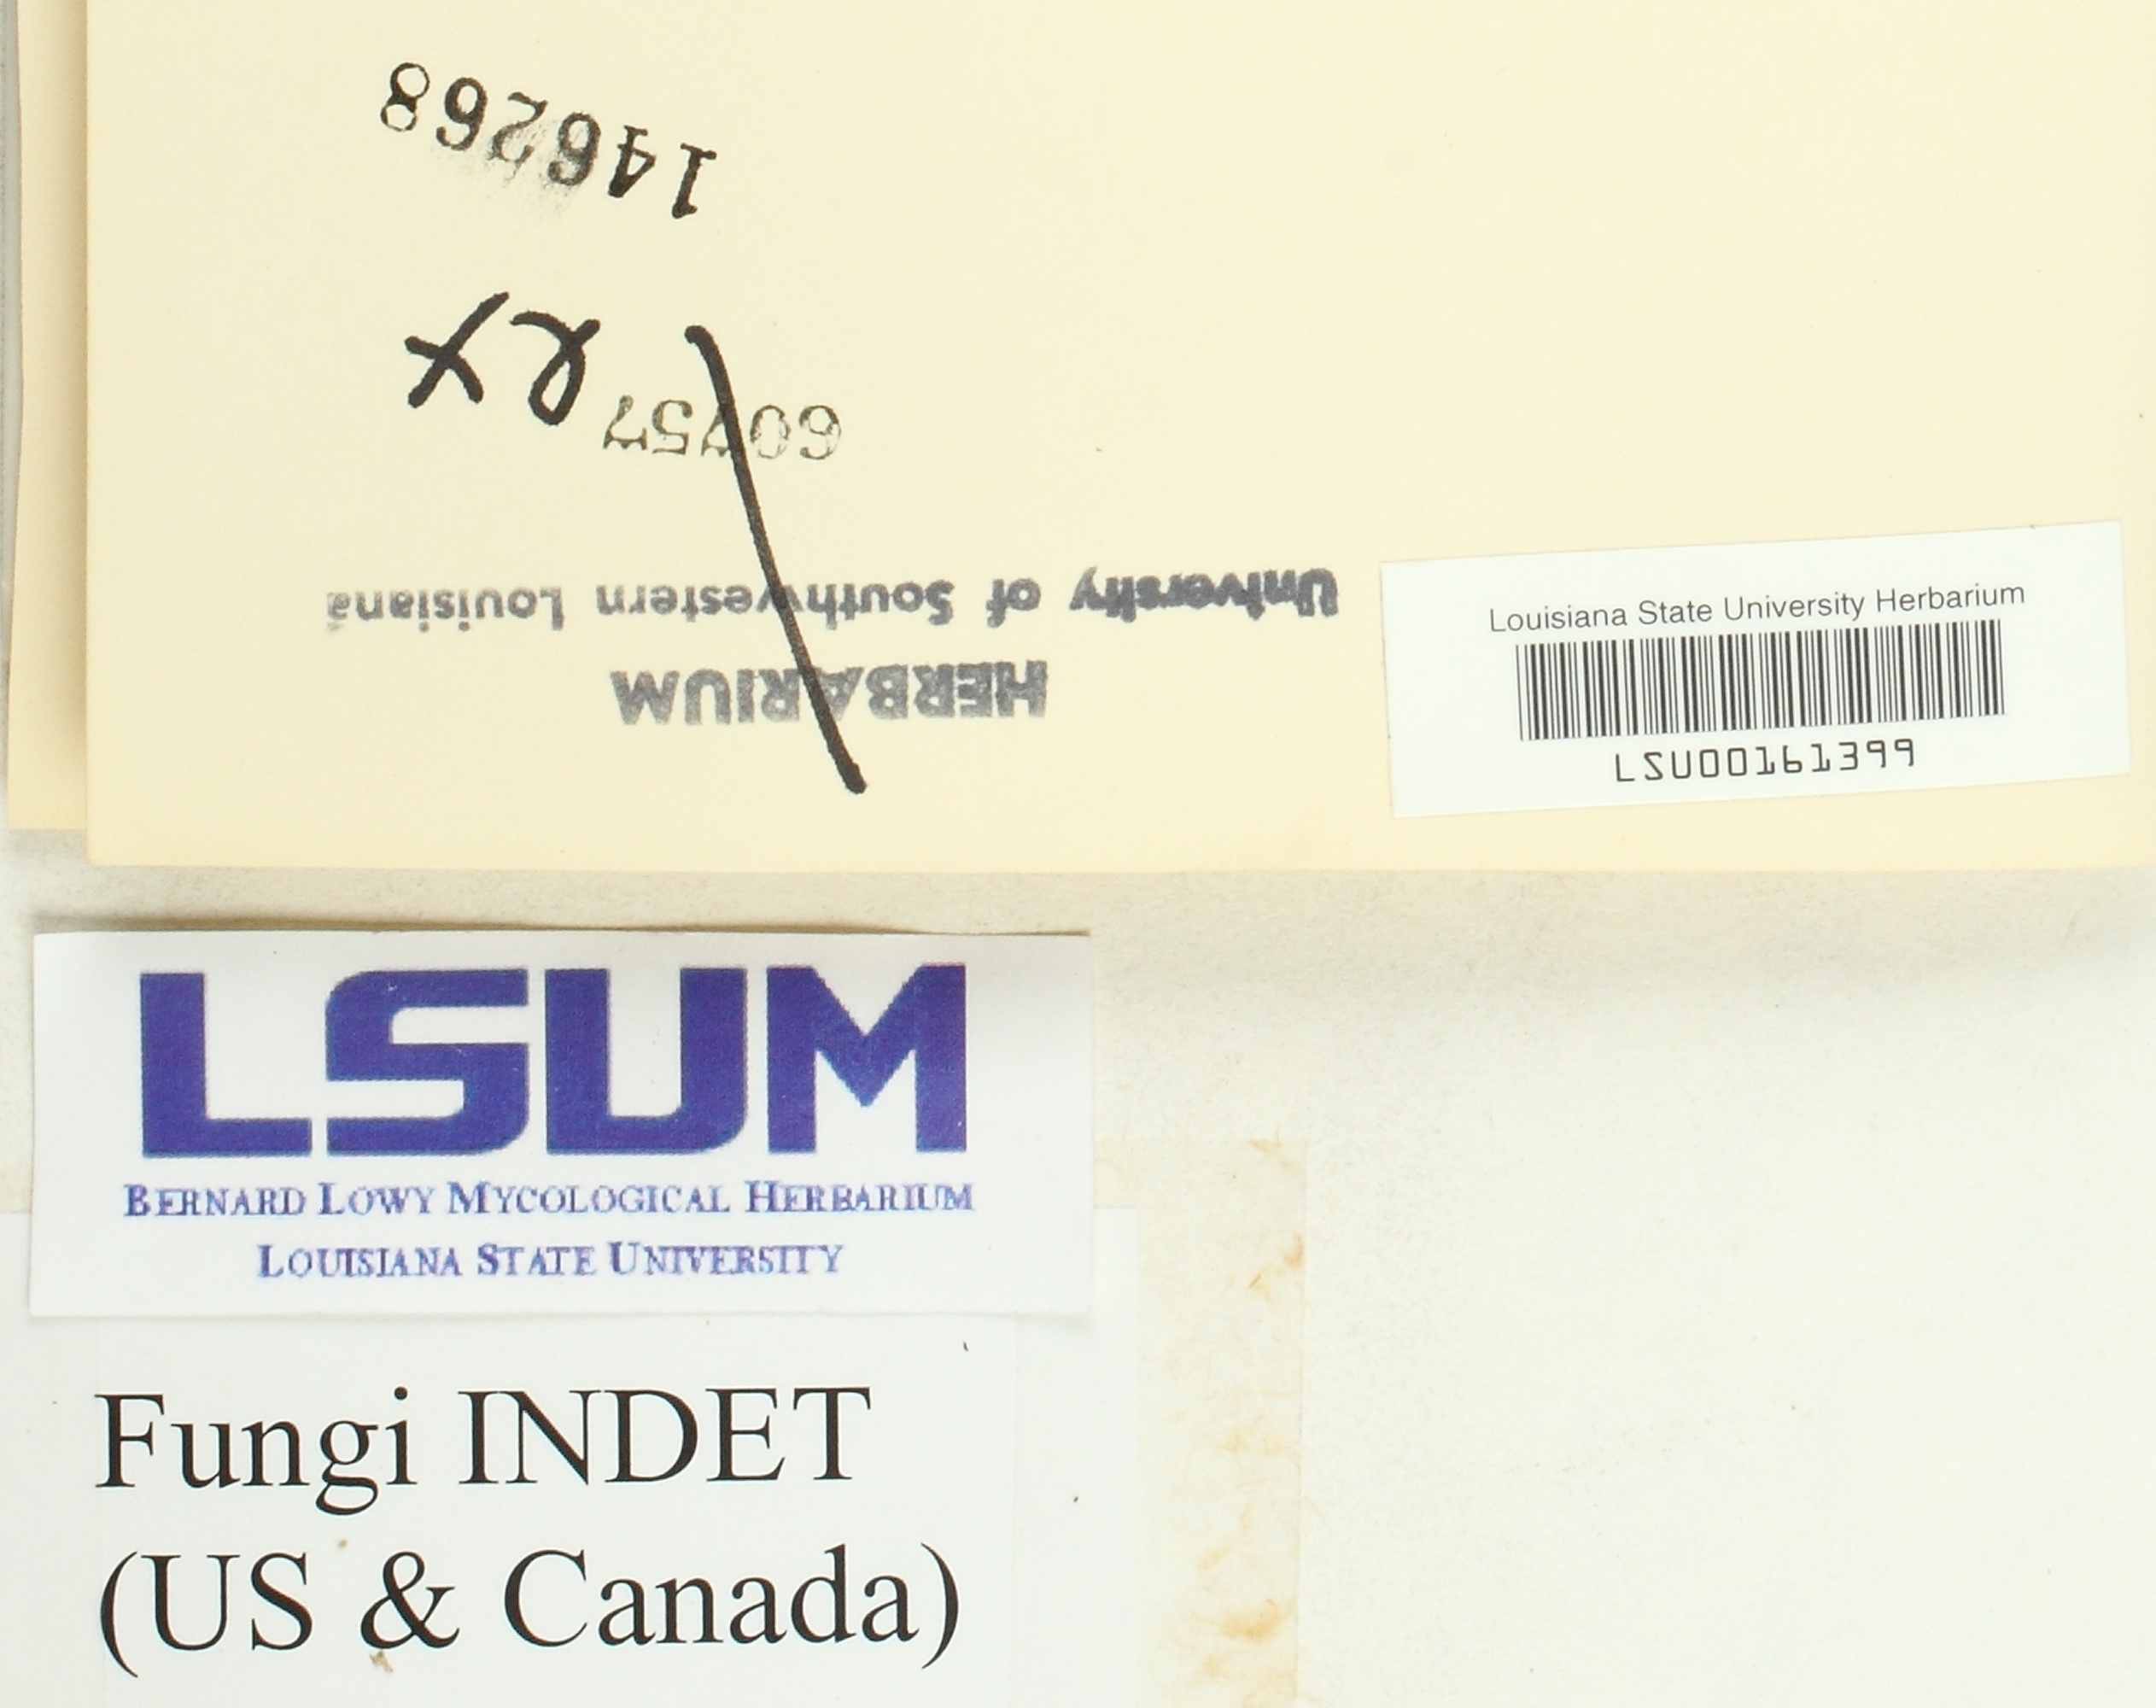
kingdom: Fungi
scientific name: Fungi
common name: Fungi
